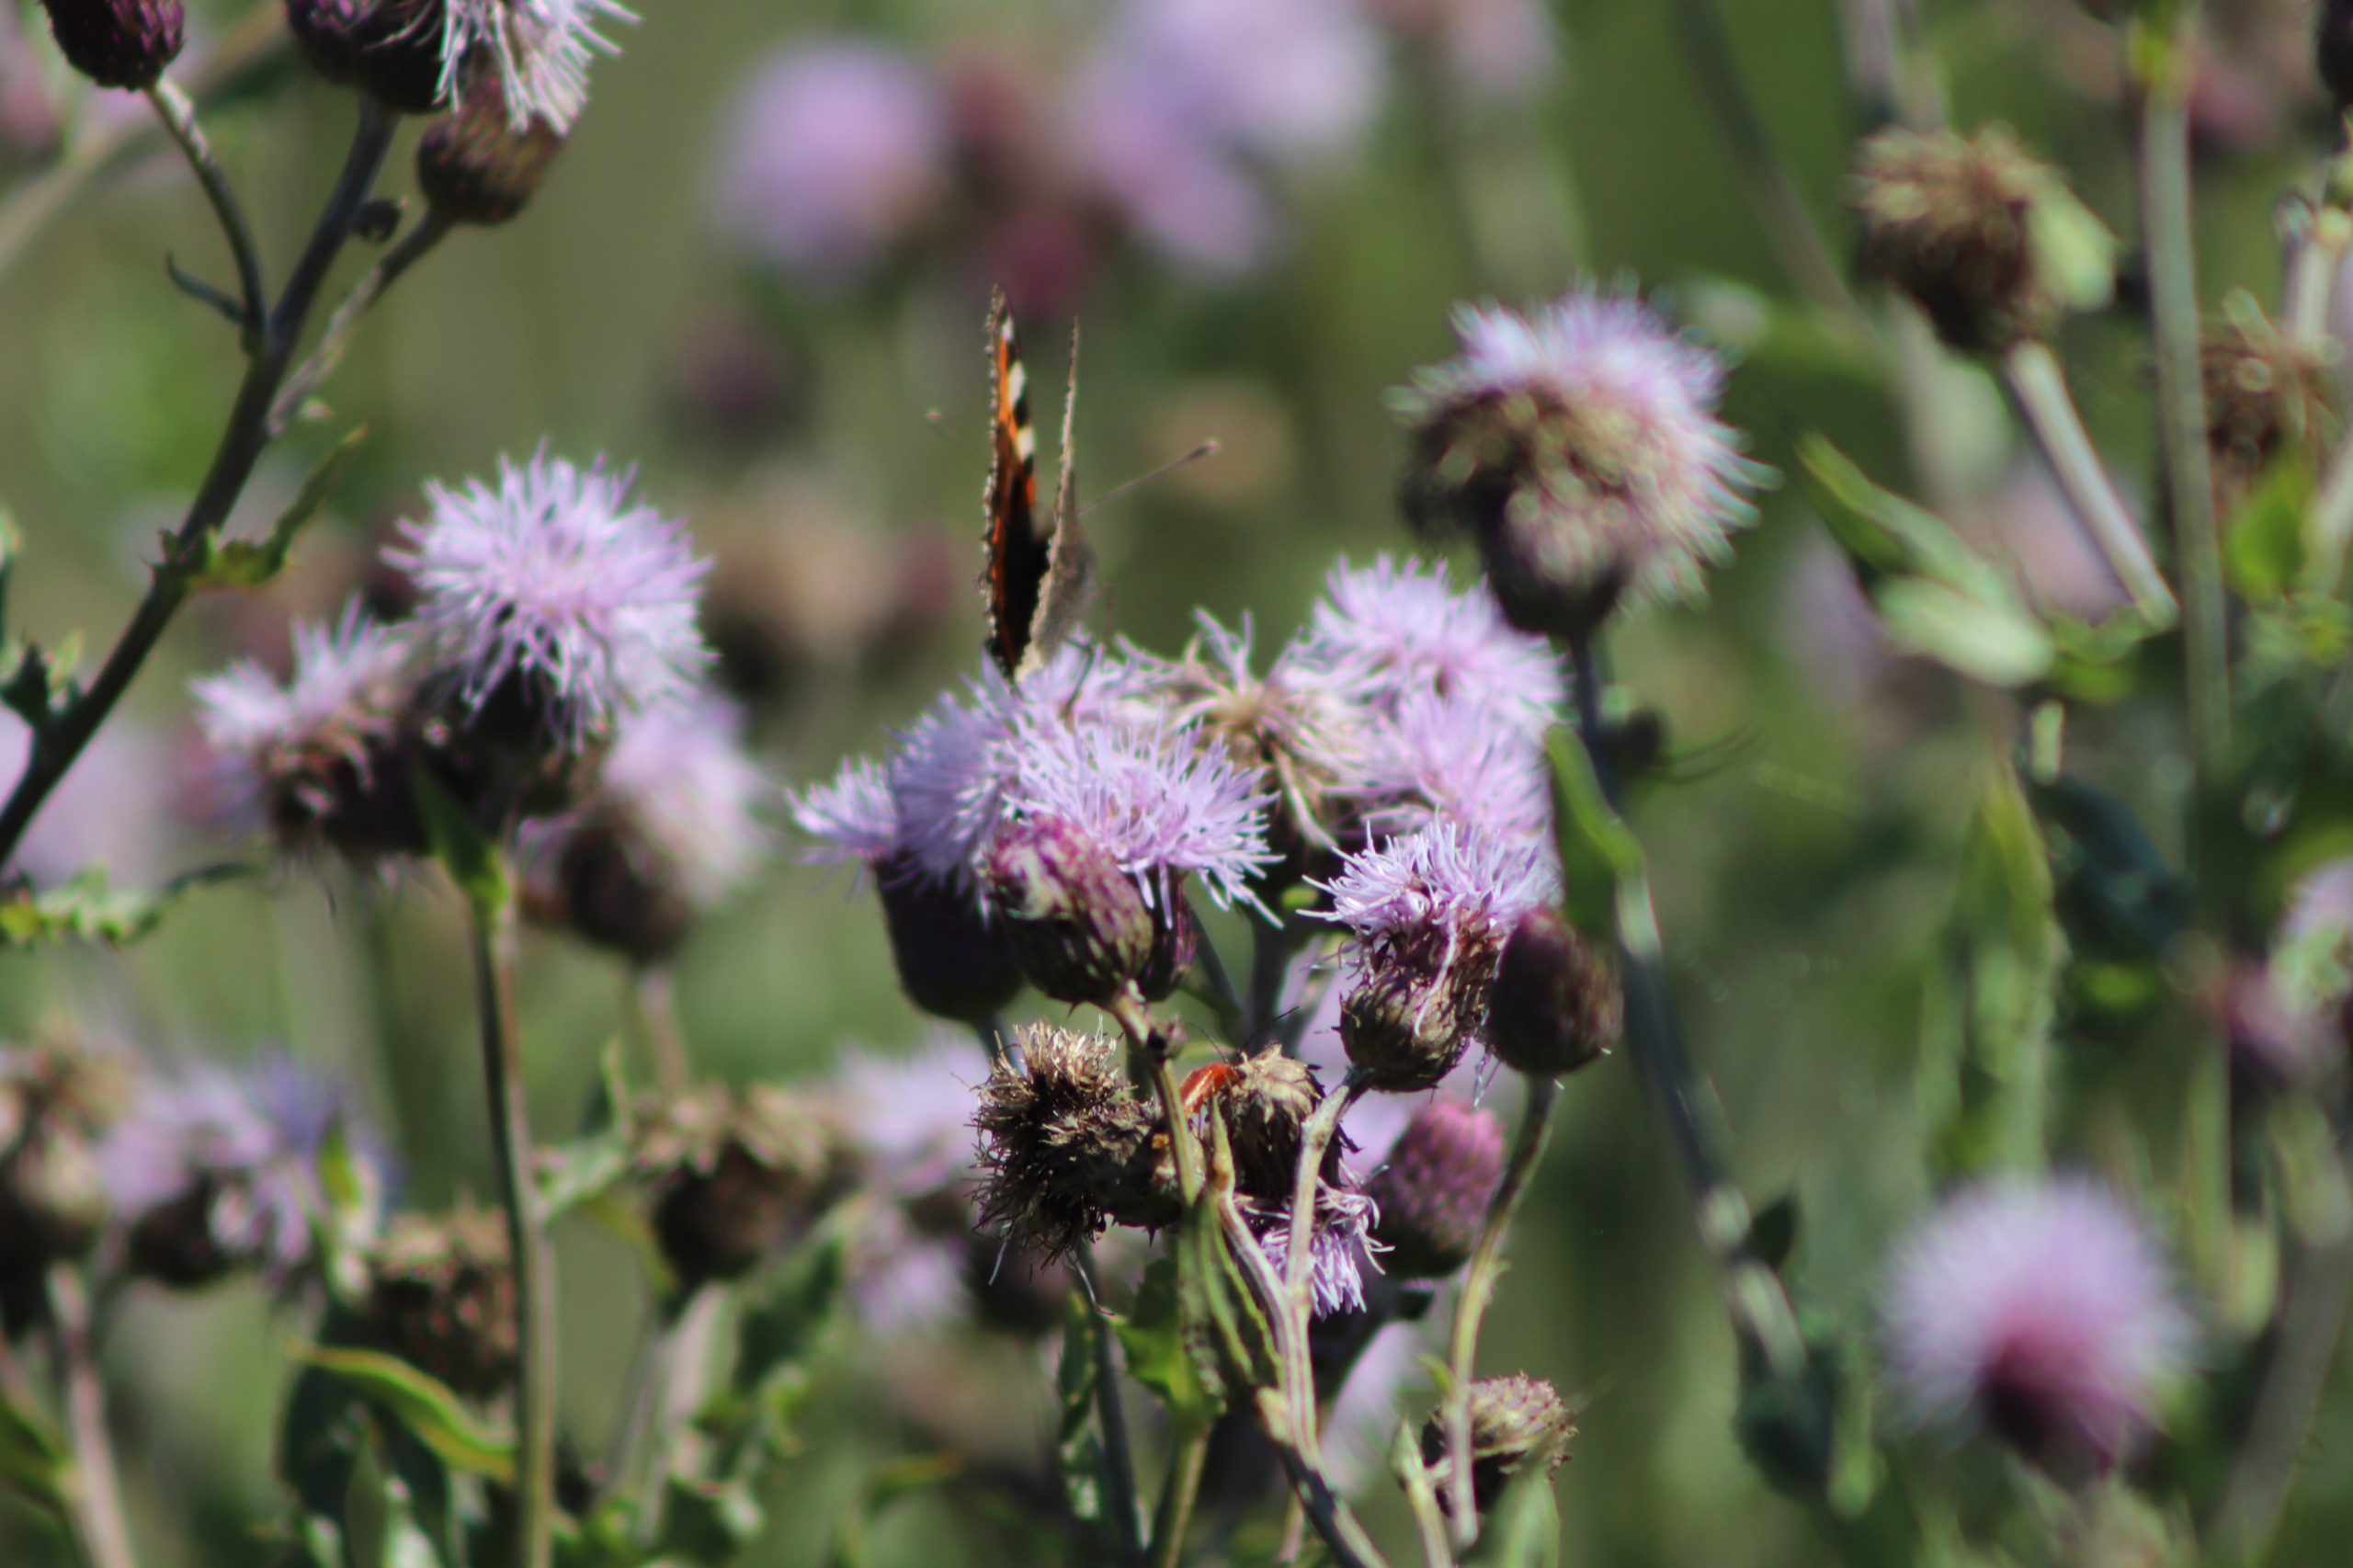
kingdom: Plantae
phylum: Tracheophyta
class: Magnoliopsida
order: Asterales
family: Asteraceae
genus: Cirsium
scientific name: Cirsium arvense
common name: Ager-tidsel
